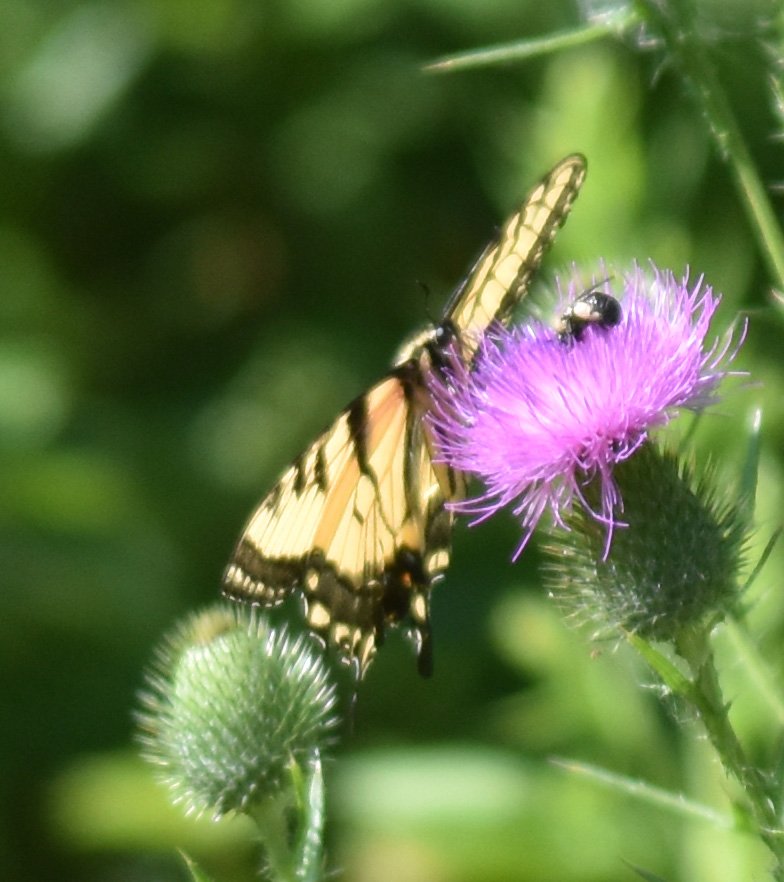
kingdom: Animalia
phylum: Arthropoda
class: Insecta
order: Lepidoptera
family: Papilionidae
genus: Pterourus
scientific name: Pterourus glaucus
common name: Eastern Tiger Swallowtail
